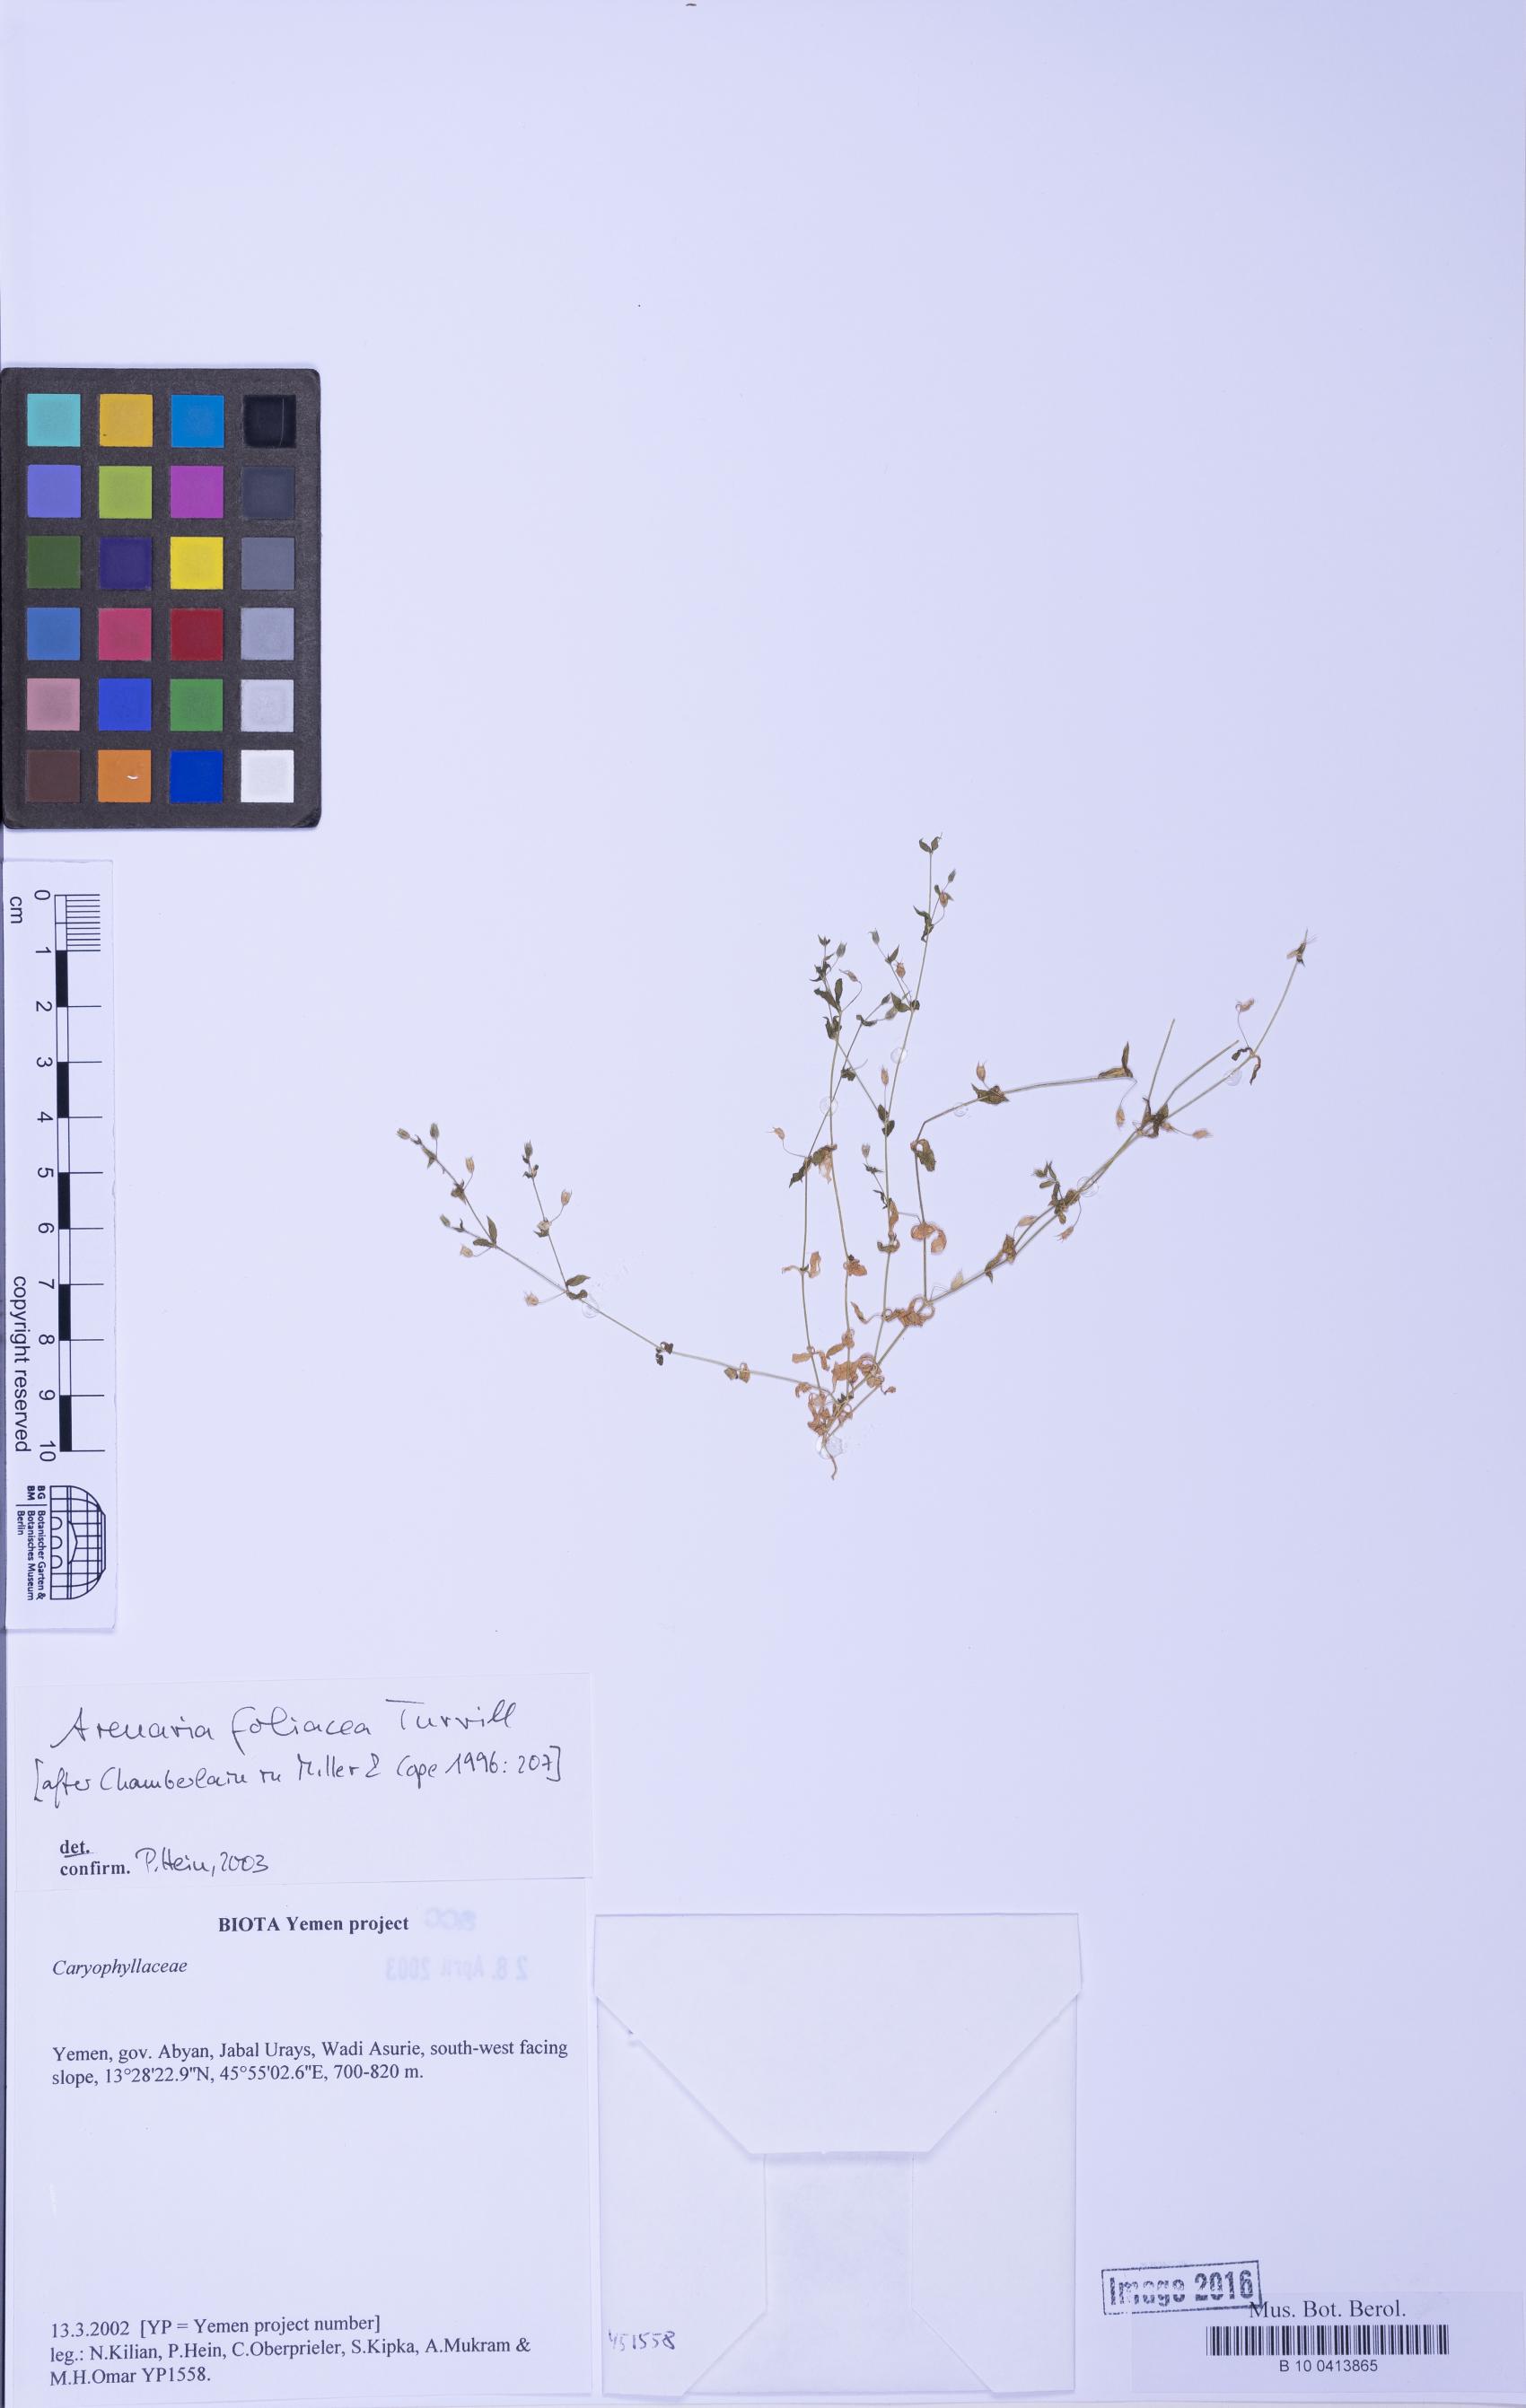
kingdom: Plantae
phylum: Tracheophyta
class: Magnoliopsida
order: Caryophyllales
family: Caryophyllaceae
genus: Arenaria
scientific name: Arenaria leptoclados
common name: Thyme-leaved sandwort
